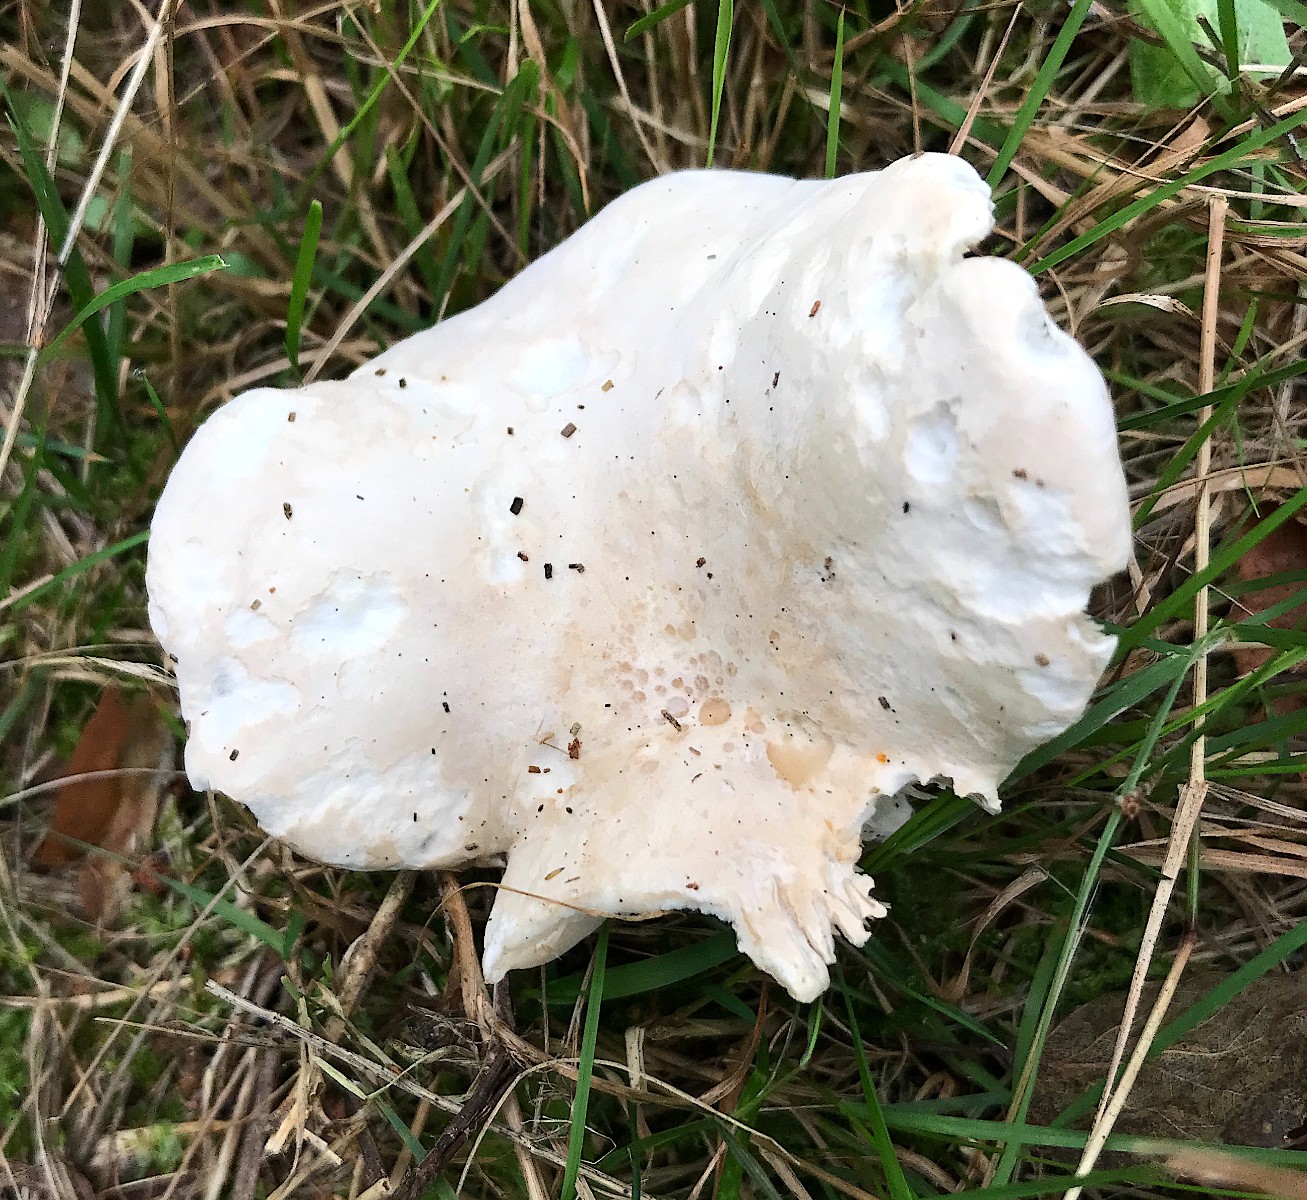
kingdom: Fungi
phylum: Basidiomycota
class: Agaricomycetes
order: Agaricales
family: Entolomataceae
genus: Clitopilus
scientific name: Clitopilus prunulus
